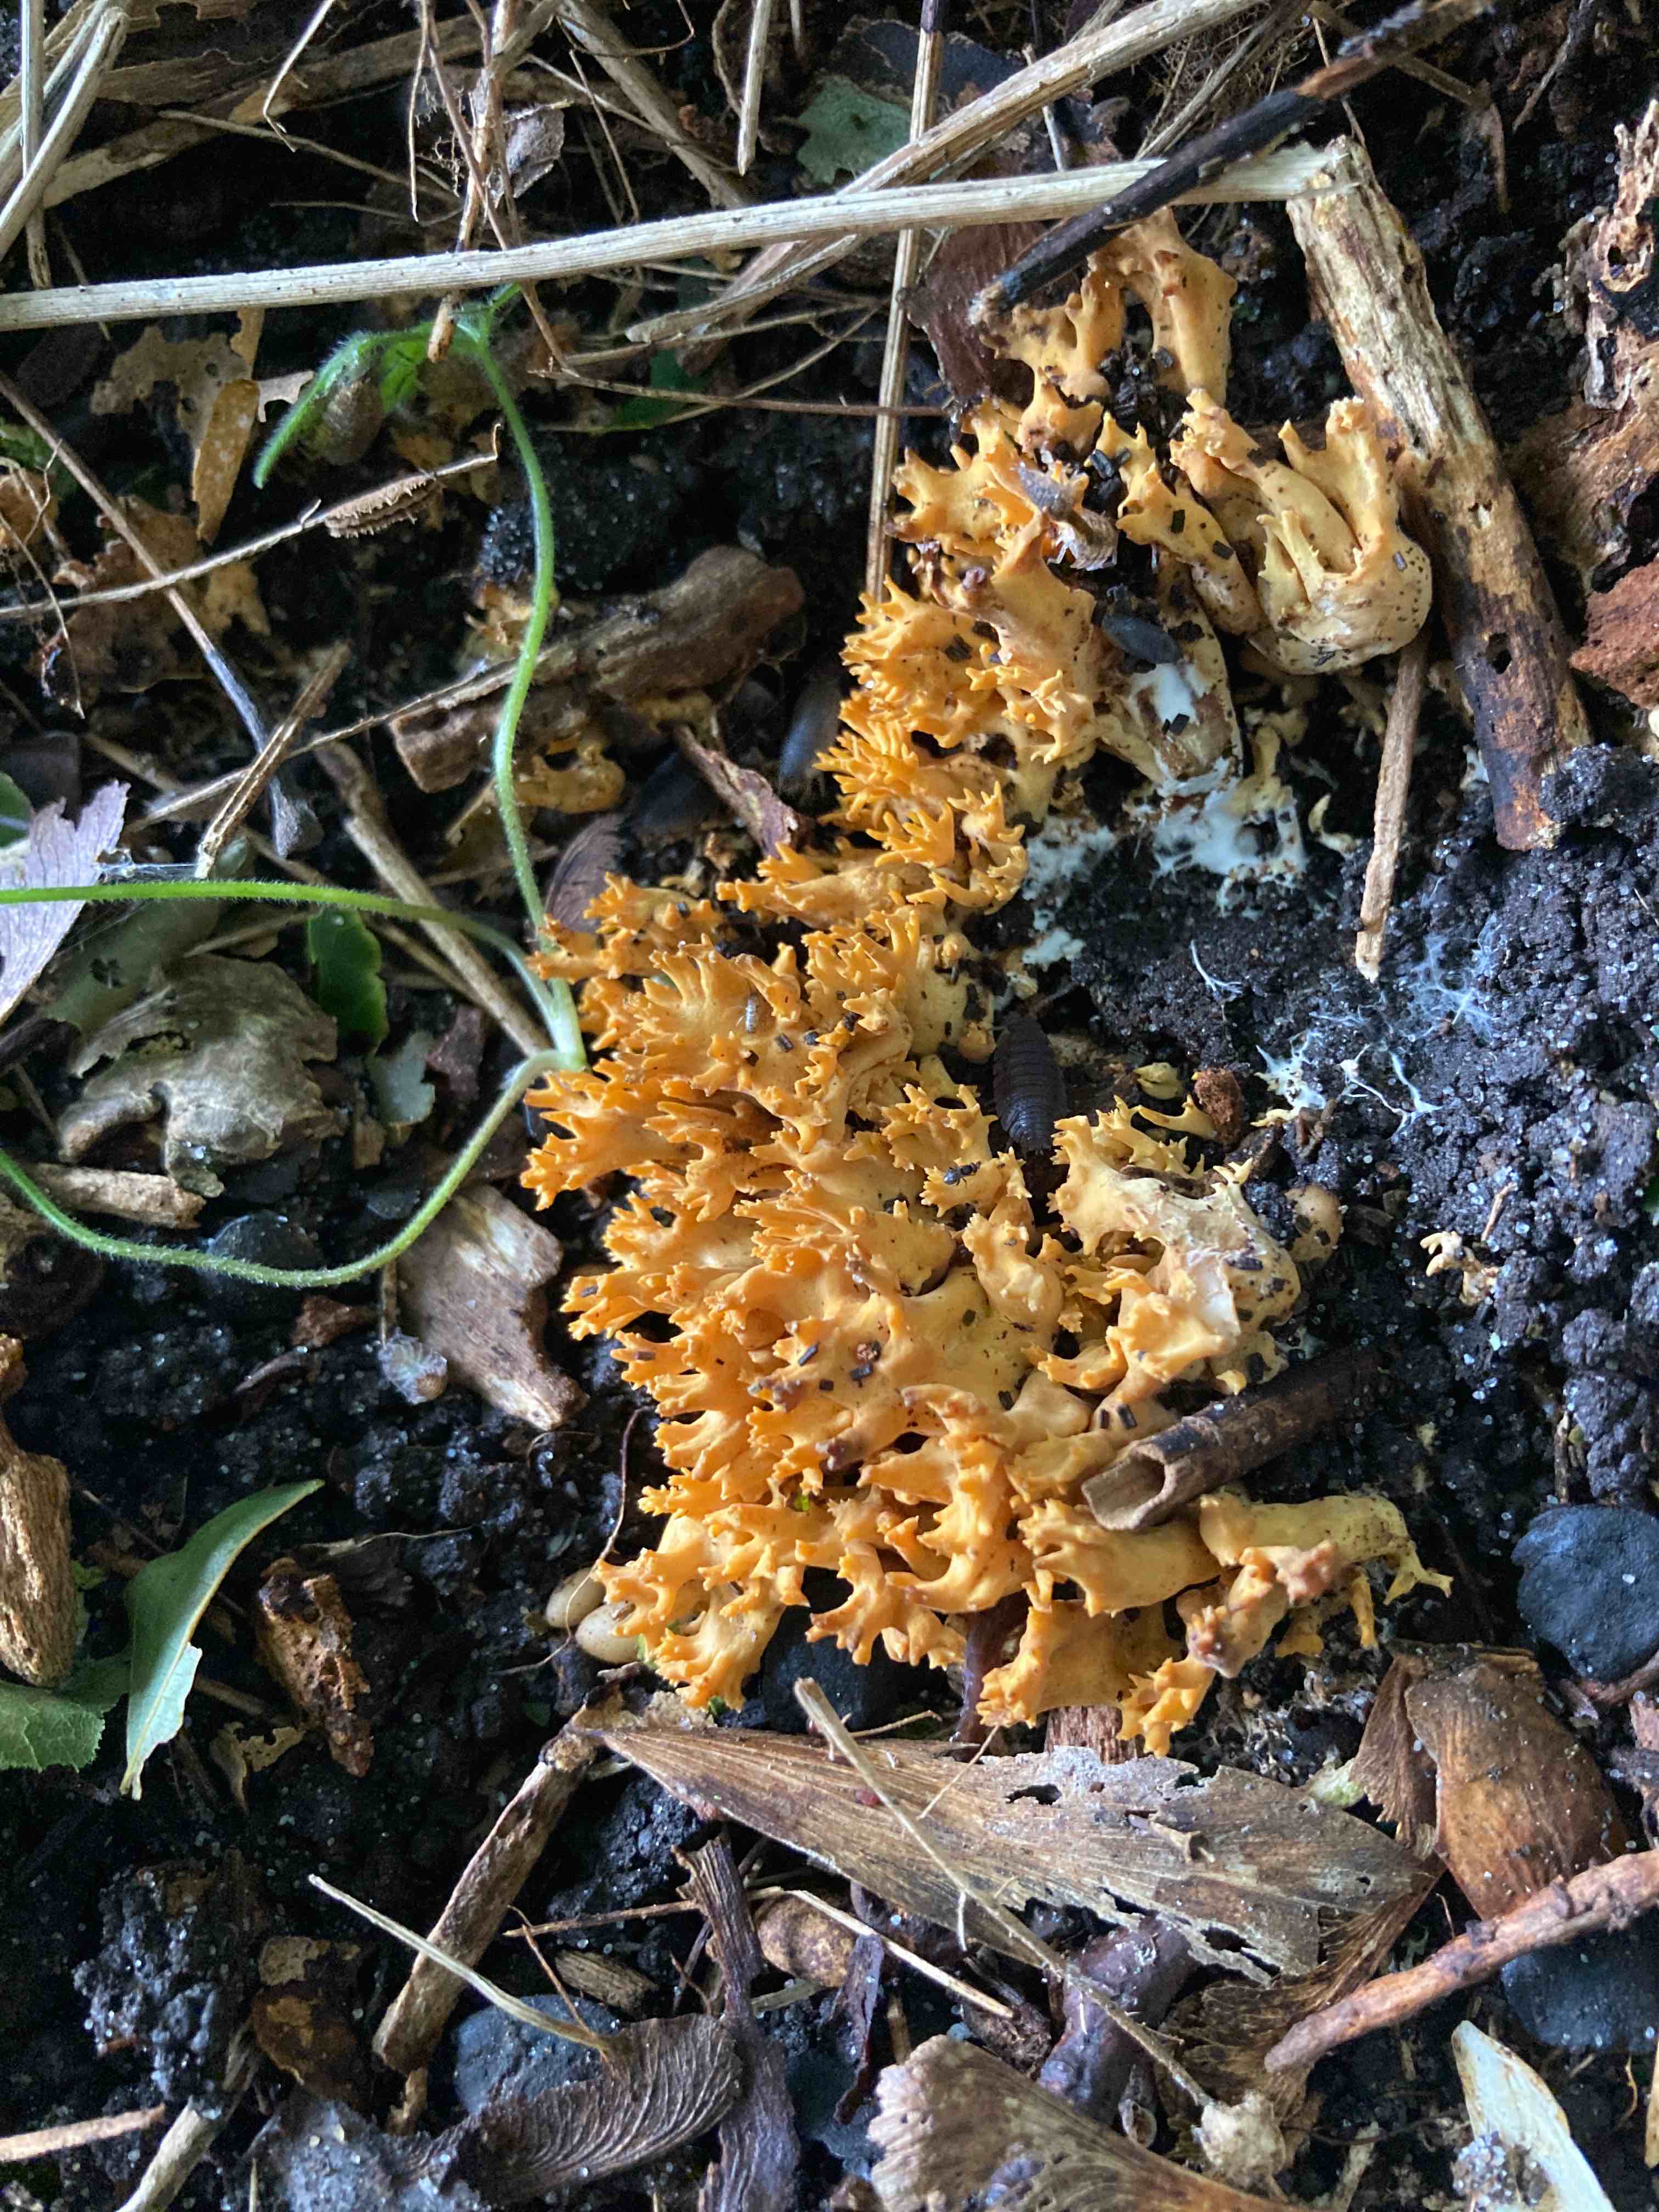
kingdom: Fungi
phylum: Basidiomycota
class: Agaricomycetes
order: Gomphales
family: Gomphaceae
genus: Phaeoclavulina
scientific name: Phaeoclavulina decurrens
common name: krat-koralsvamp
